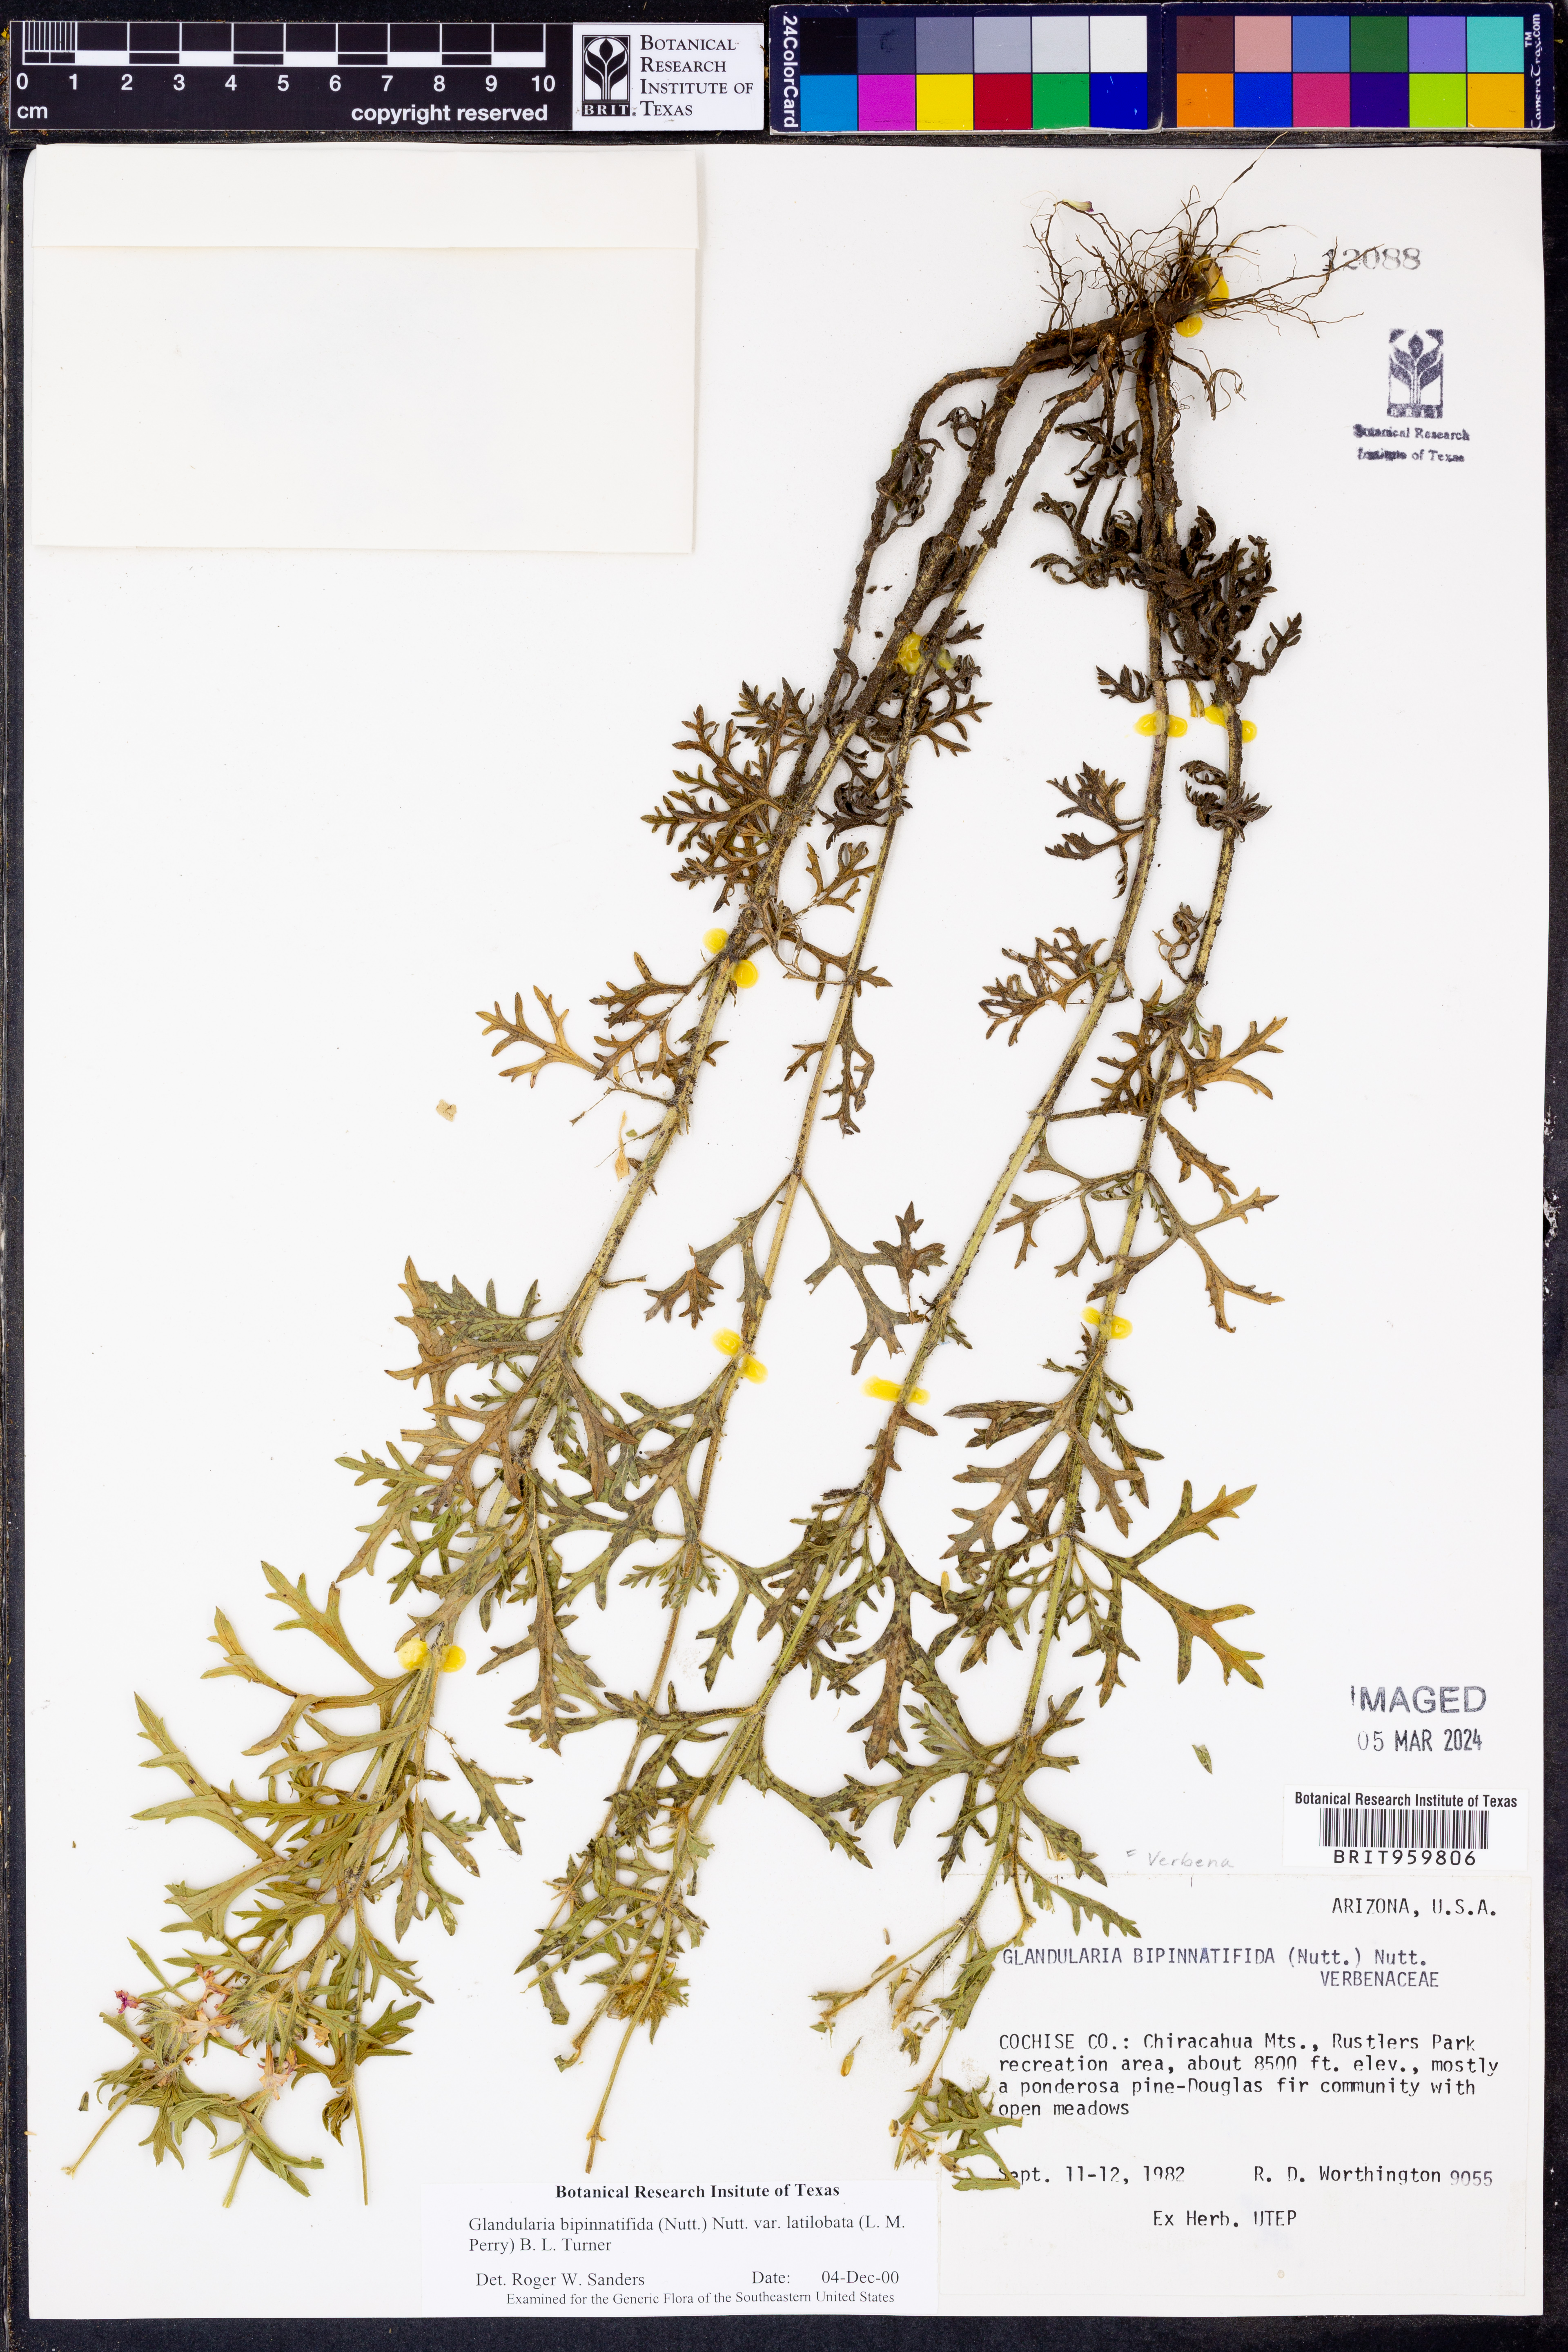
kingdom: Plantae
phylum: Tracheophyta
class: Magnoliopsida
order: Lamiales
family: Verbenaceae
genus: Verbena
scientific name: Verbena gooddingii
